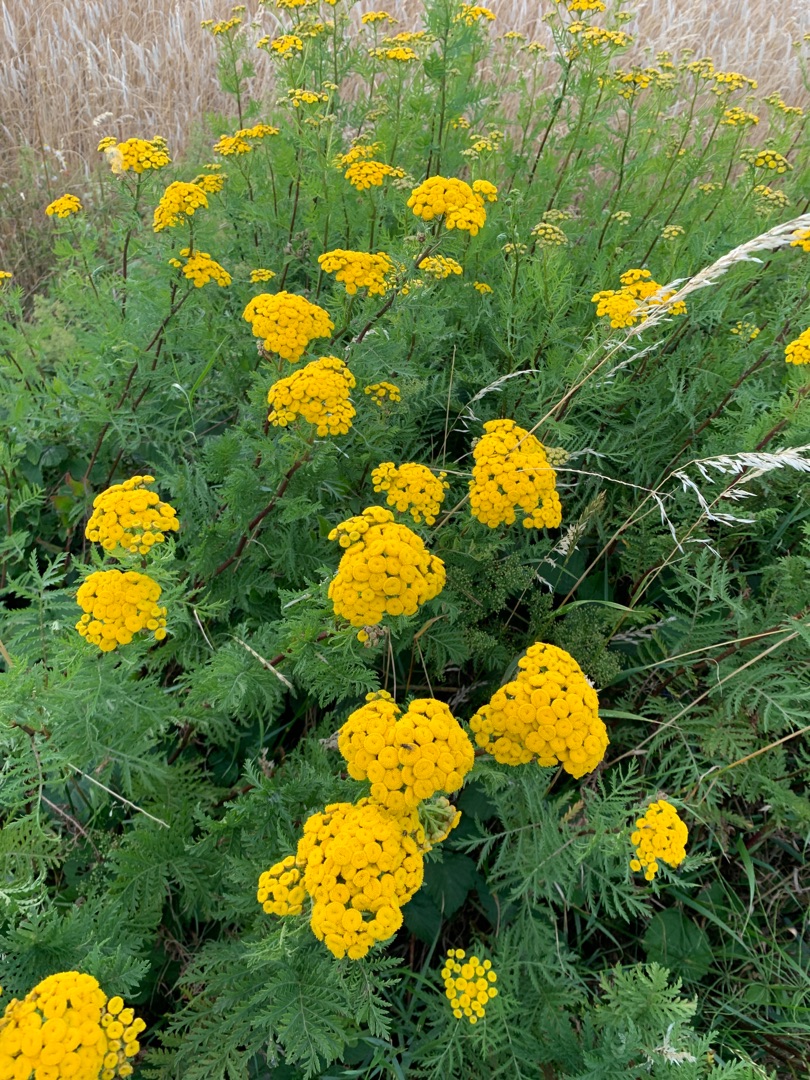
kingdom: Plantae
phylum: Tracheophyta
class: Magnoliopsida
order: Asterales
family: Asteraceae
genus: Tanacetum
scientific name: Tanacetum vulgare
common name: Rejnfan
